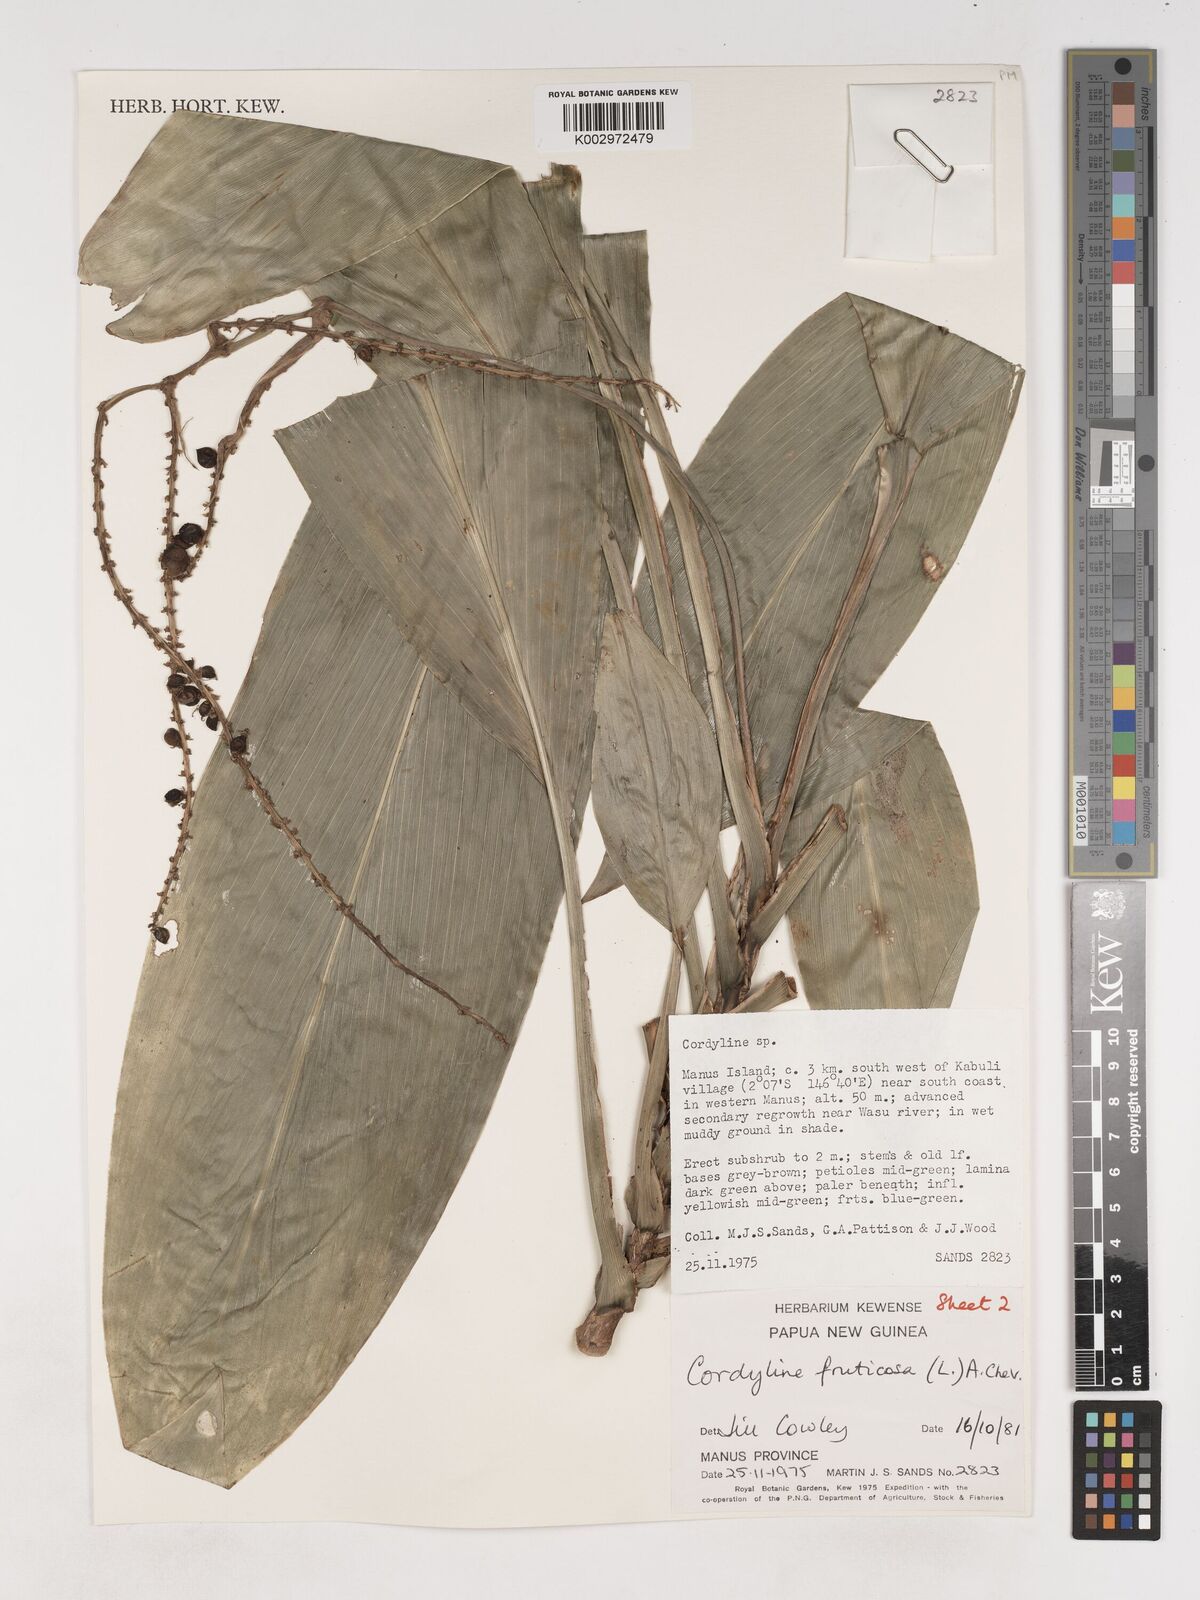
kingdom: Plantae
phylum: Tracheophyta
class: Liliopsida
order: Asparagales
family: Asparagaceae
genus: Cordyline
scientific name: Cordyline fruticosa
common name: Good-luck-plant
